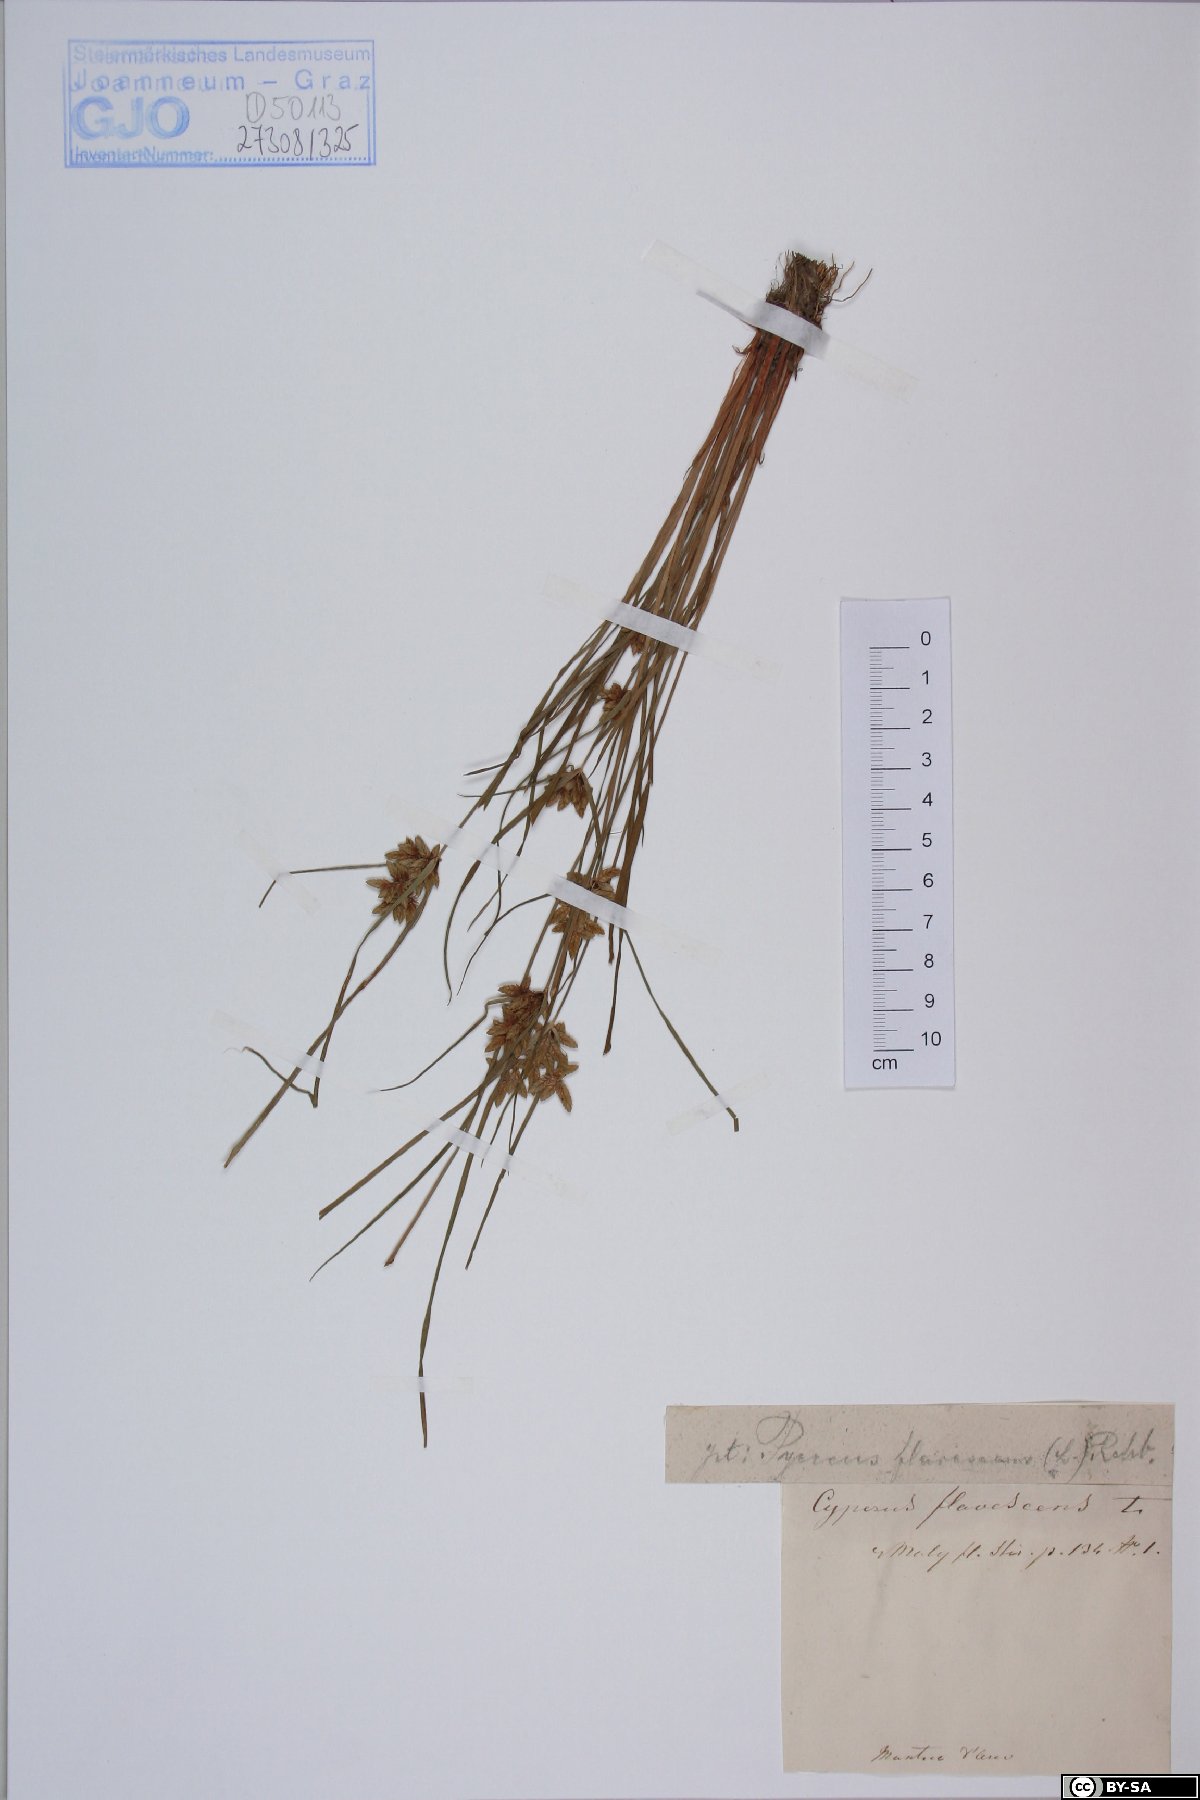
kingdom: Plantae
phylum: Tracheophyta
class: Liliopsida
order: Poales
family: Cyperaceae
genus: Cyperus
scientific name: Cyperus flavescens
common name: Yellow galingale
